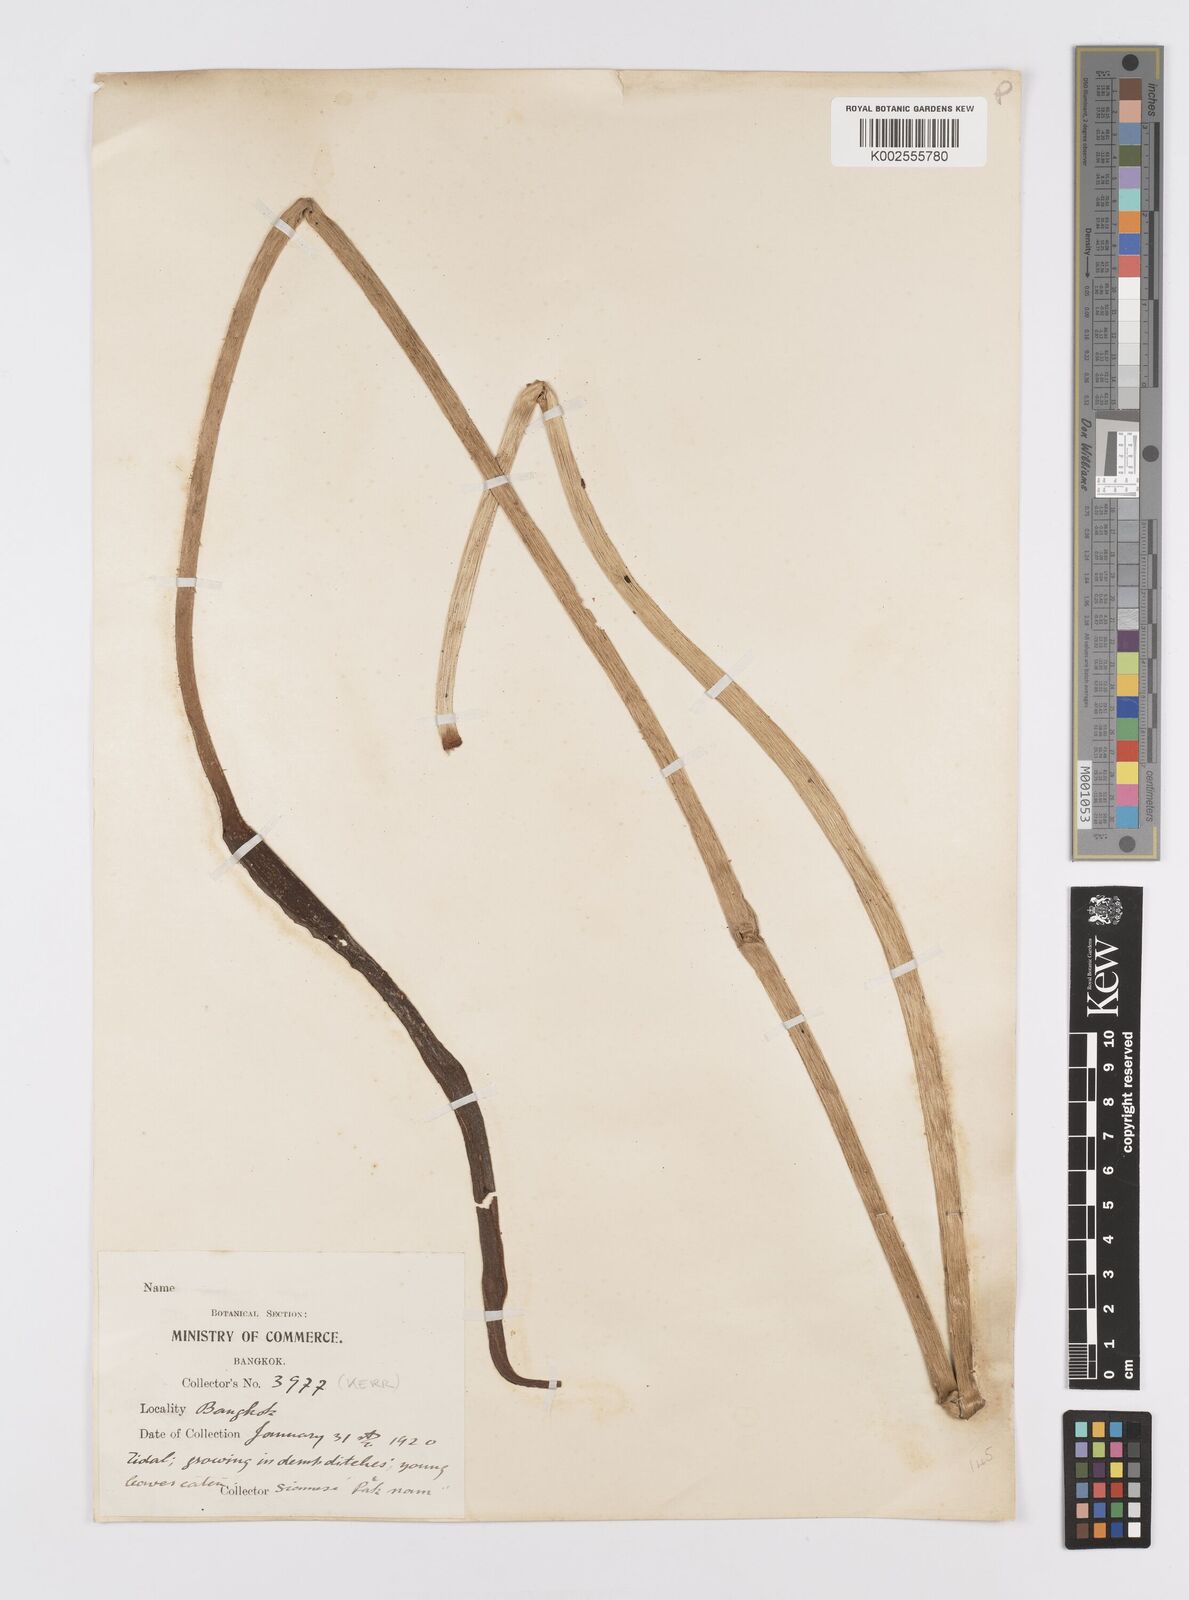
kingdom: Plantae
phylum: Tracheophyta
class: Liliopsida
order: Alismatales
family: Araceae
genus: Lasia
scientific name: Lasia spinosa
